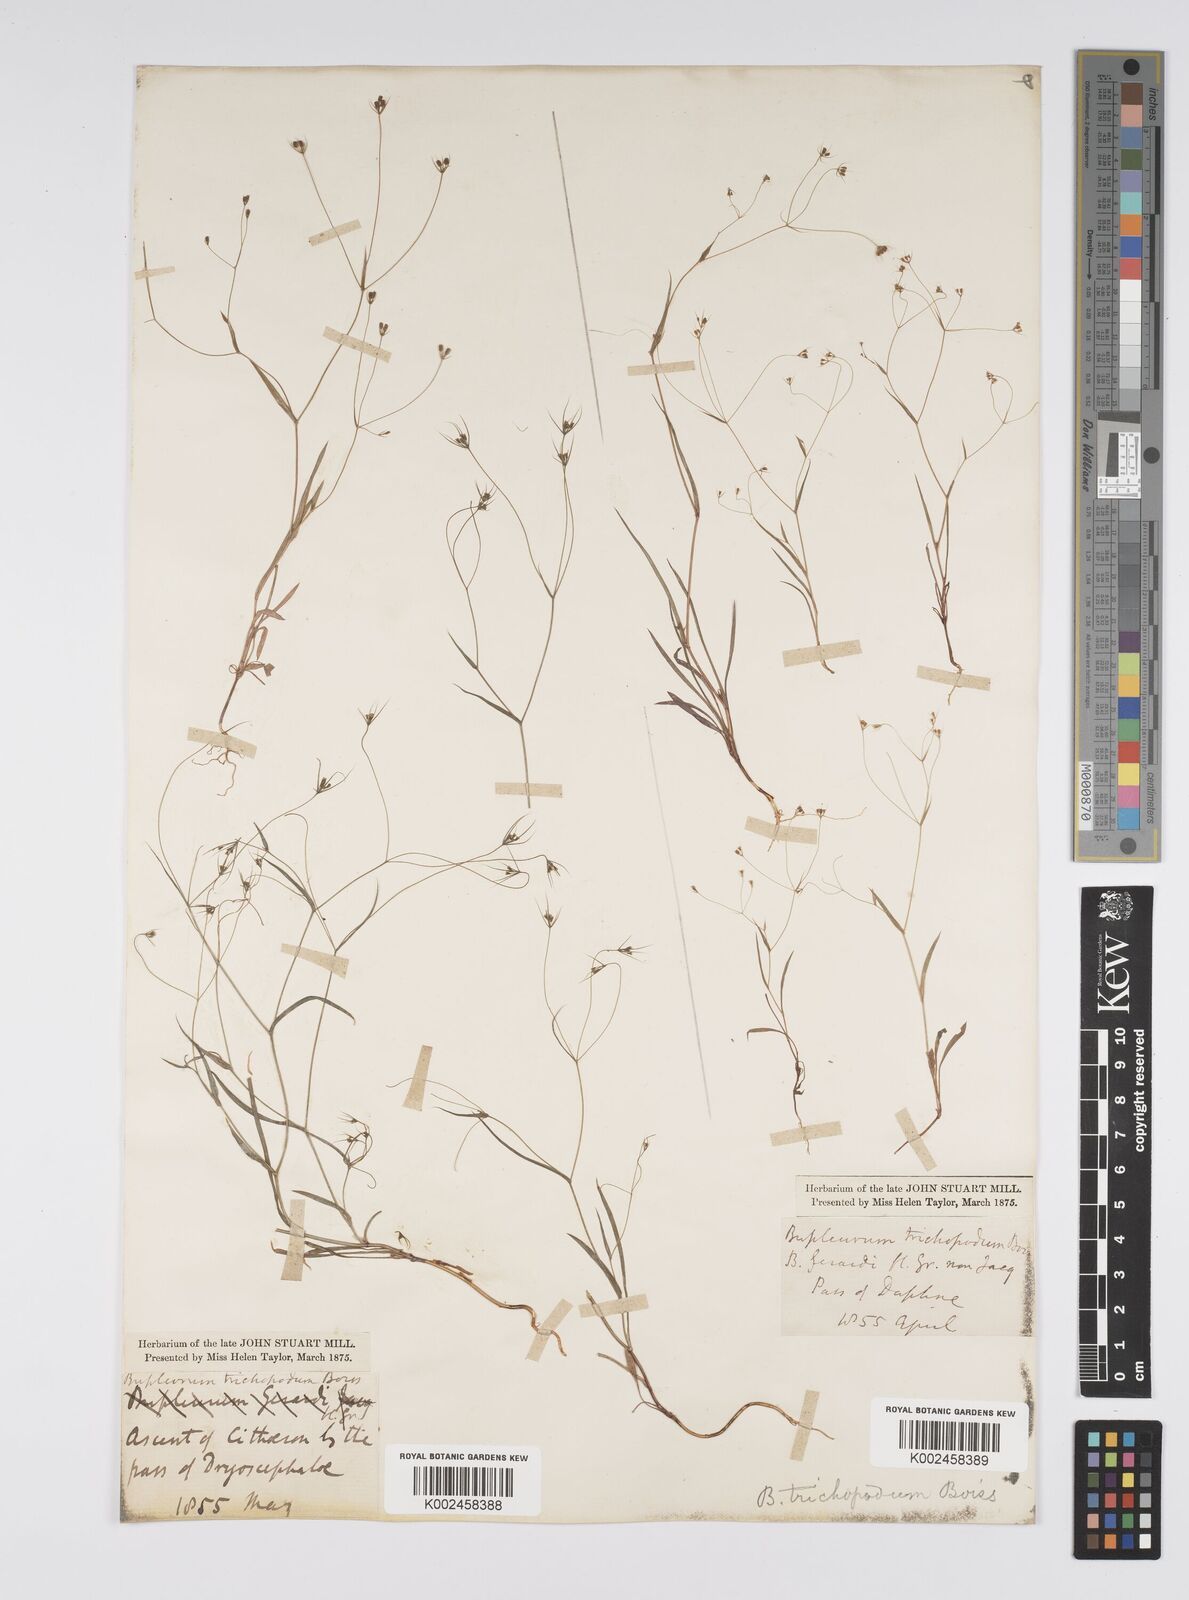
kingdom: Plantae
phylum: Tracheophyta
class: Magnoliopsida
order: Apiales
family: Apiaceae
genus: Bupleurum
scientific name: Bupleurum trichopodum
